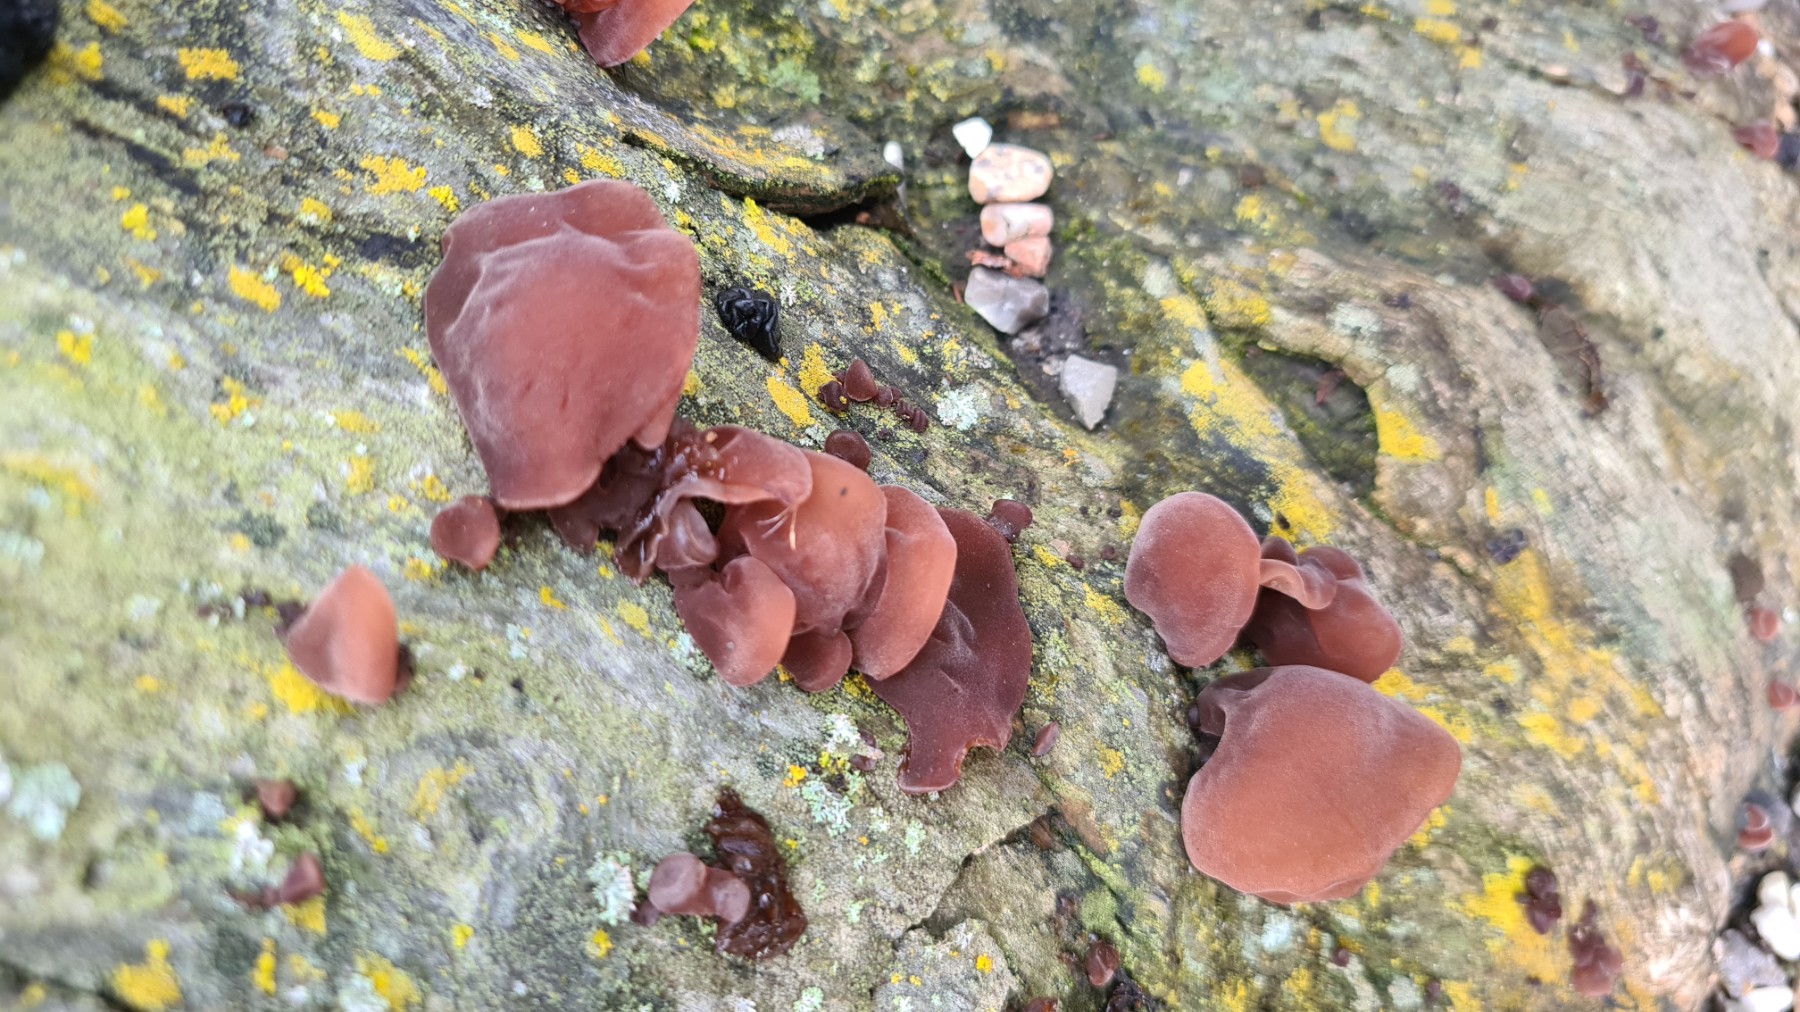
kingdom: Fungi
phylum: Basidiomycota
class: Agaricomycetes
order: Auriculariales
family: Auriculariaceae
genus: Auricularia
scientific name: Auricularia auricula-judae
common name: almindelig judasøre
